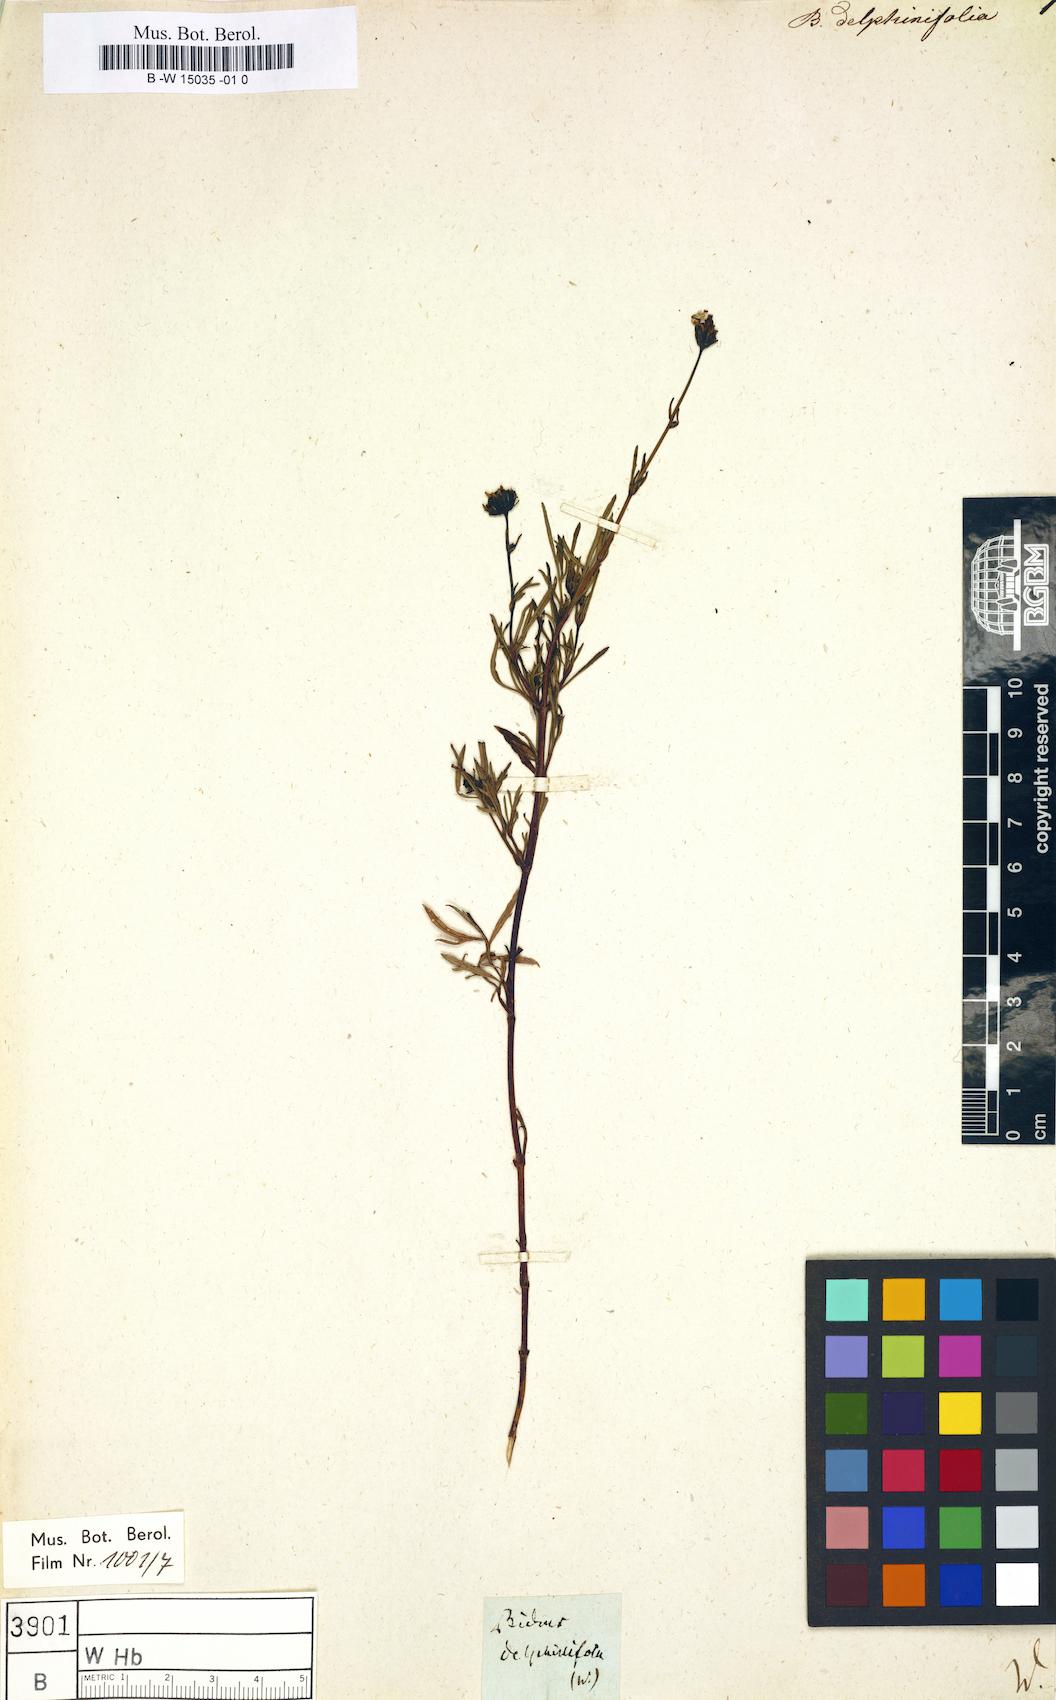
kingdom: Plantae
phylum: Tracheophyta
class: Magnoliopsida
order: Asterales
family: Asteraceae
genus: Bidens
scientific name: Bidens triplinervia
